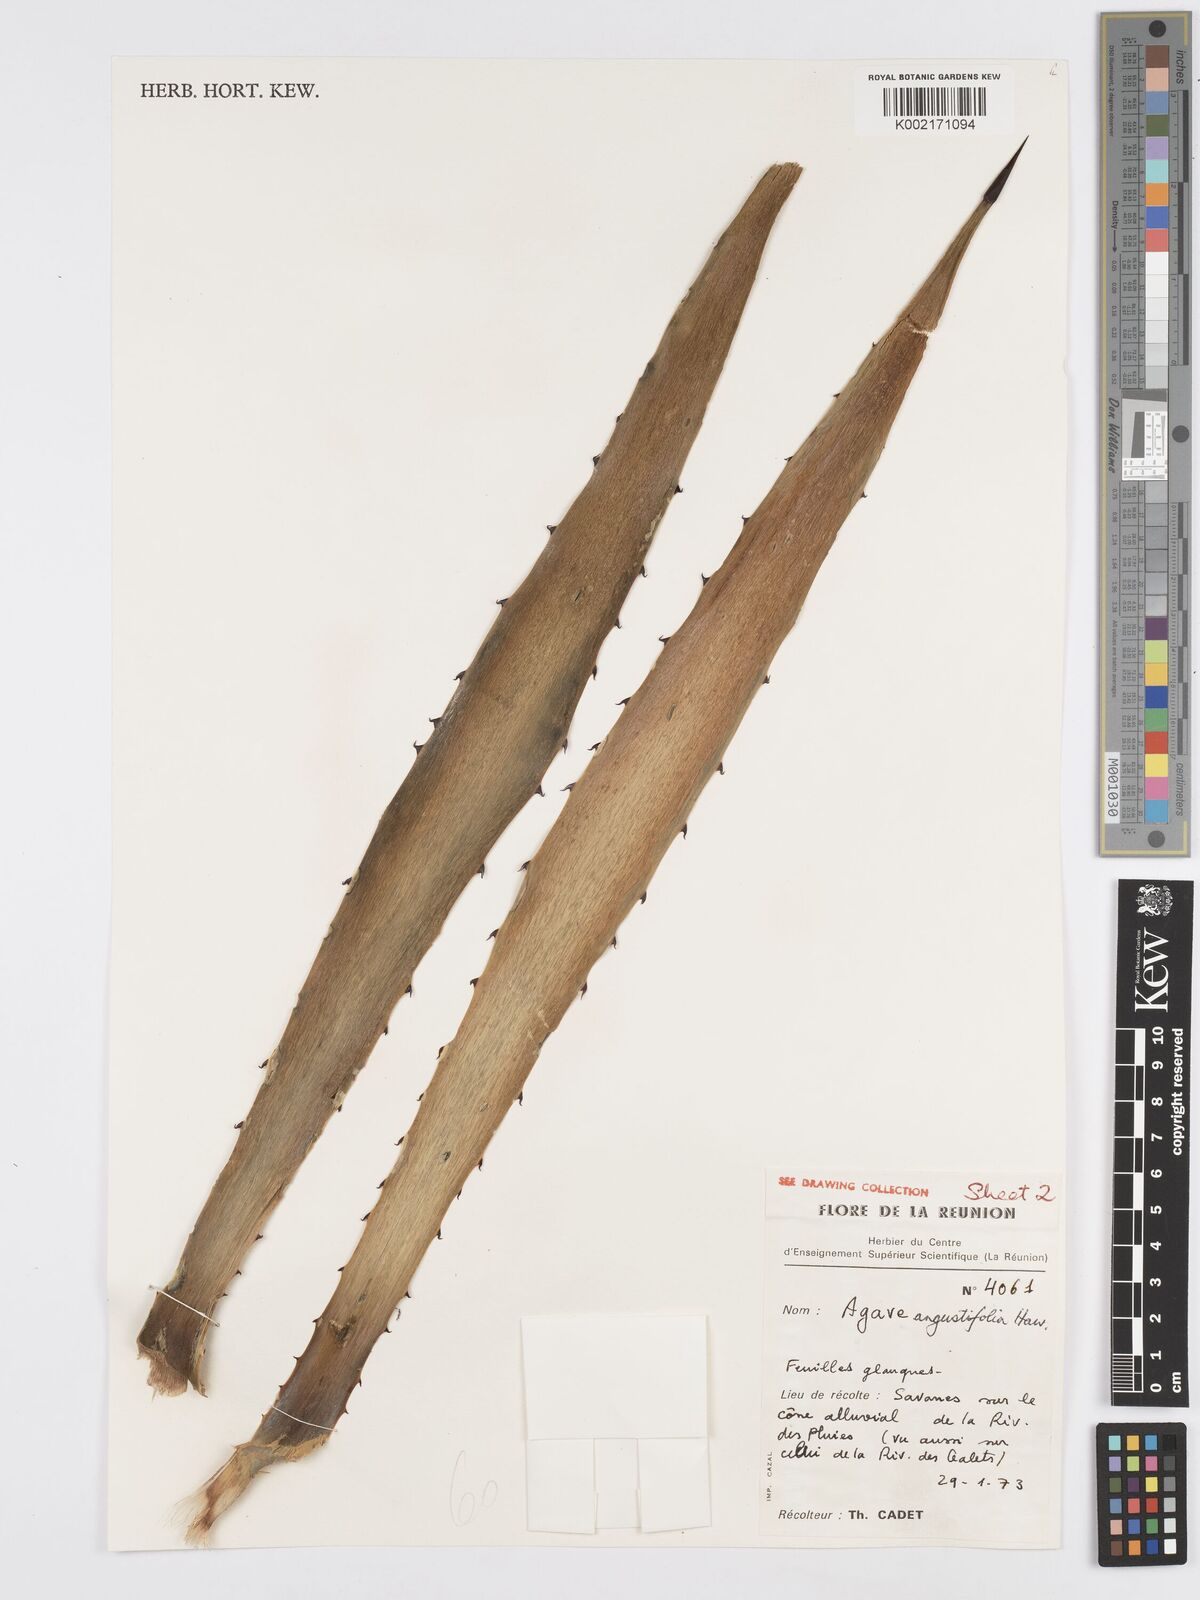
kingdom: Plantae
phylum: Tracheophyta
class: Liliopsida
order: Asparagales
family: Asparagaceae
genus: Agave
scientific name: Agave angustifolia
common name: Mescal agave
